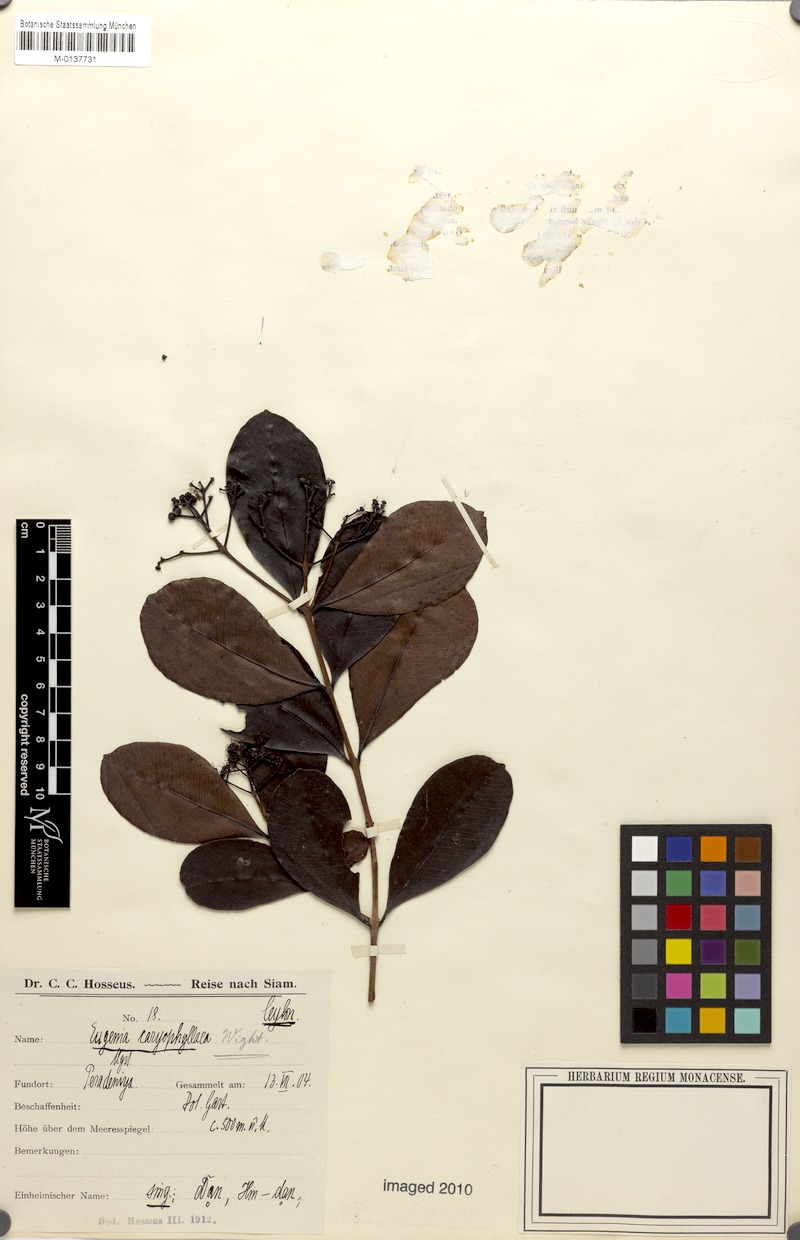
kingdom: Plantae
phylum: Tracheophyta
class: Magnoliopsida
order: Myrtales
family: Myrtaceae
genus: Syzygium
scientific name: Syzygium caryophyllatum
